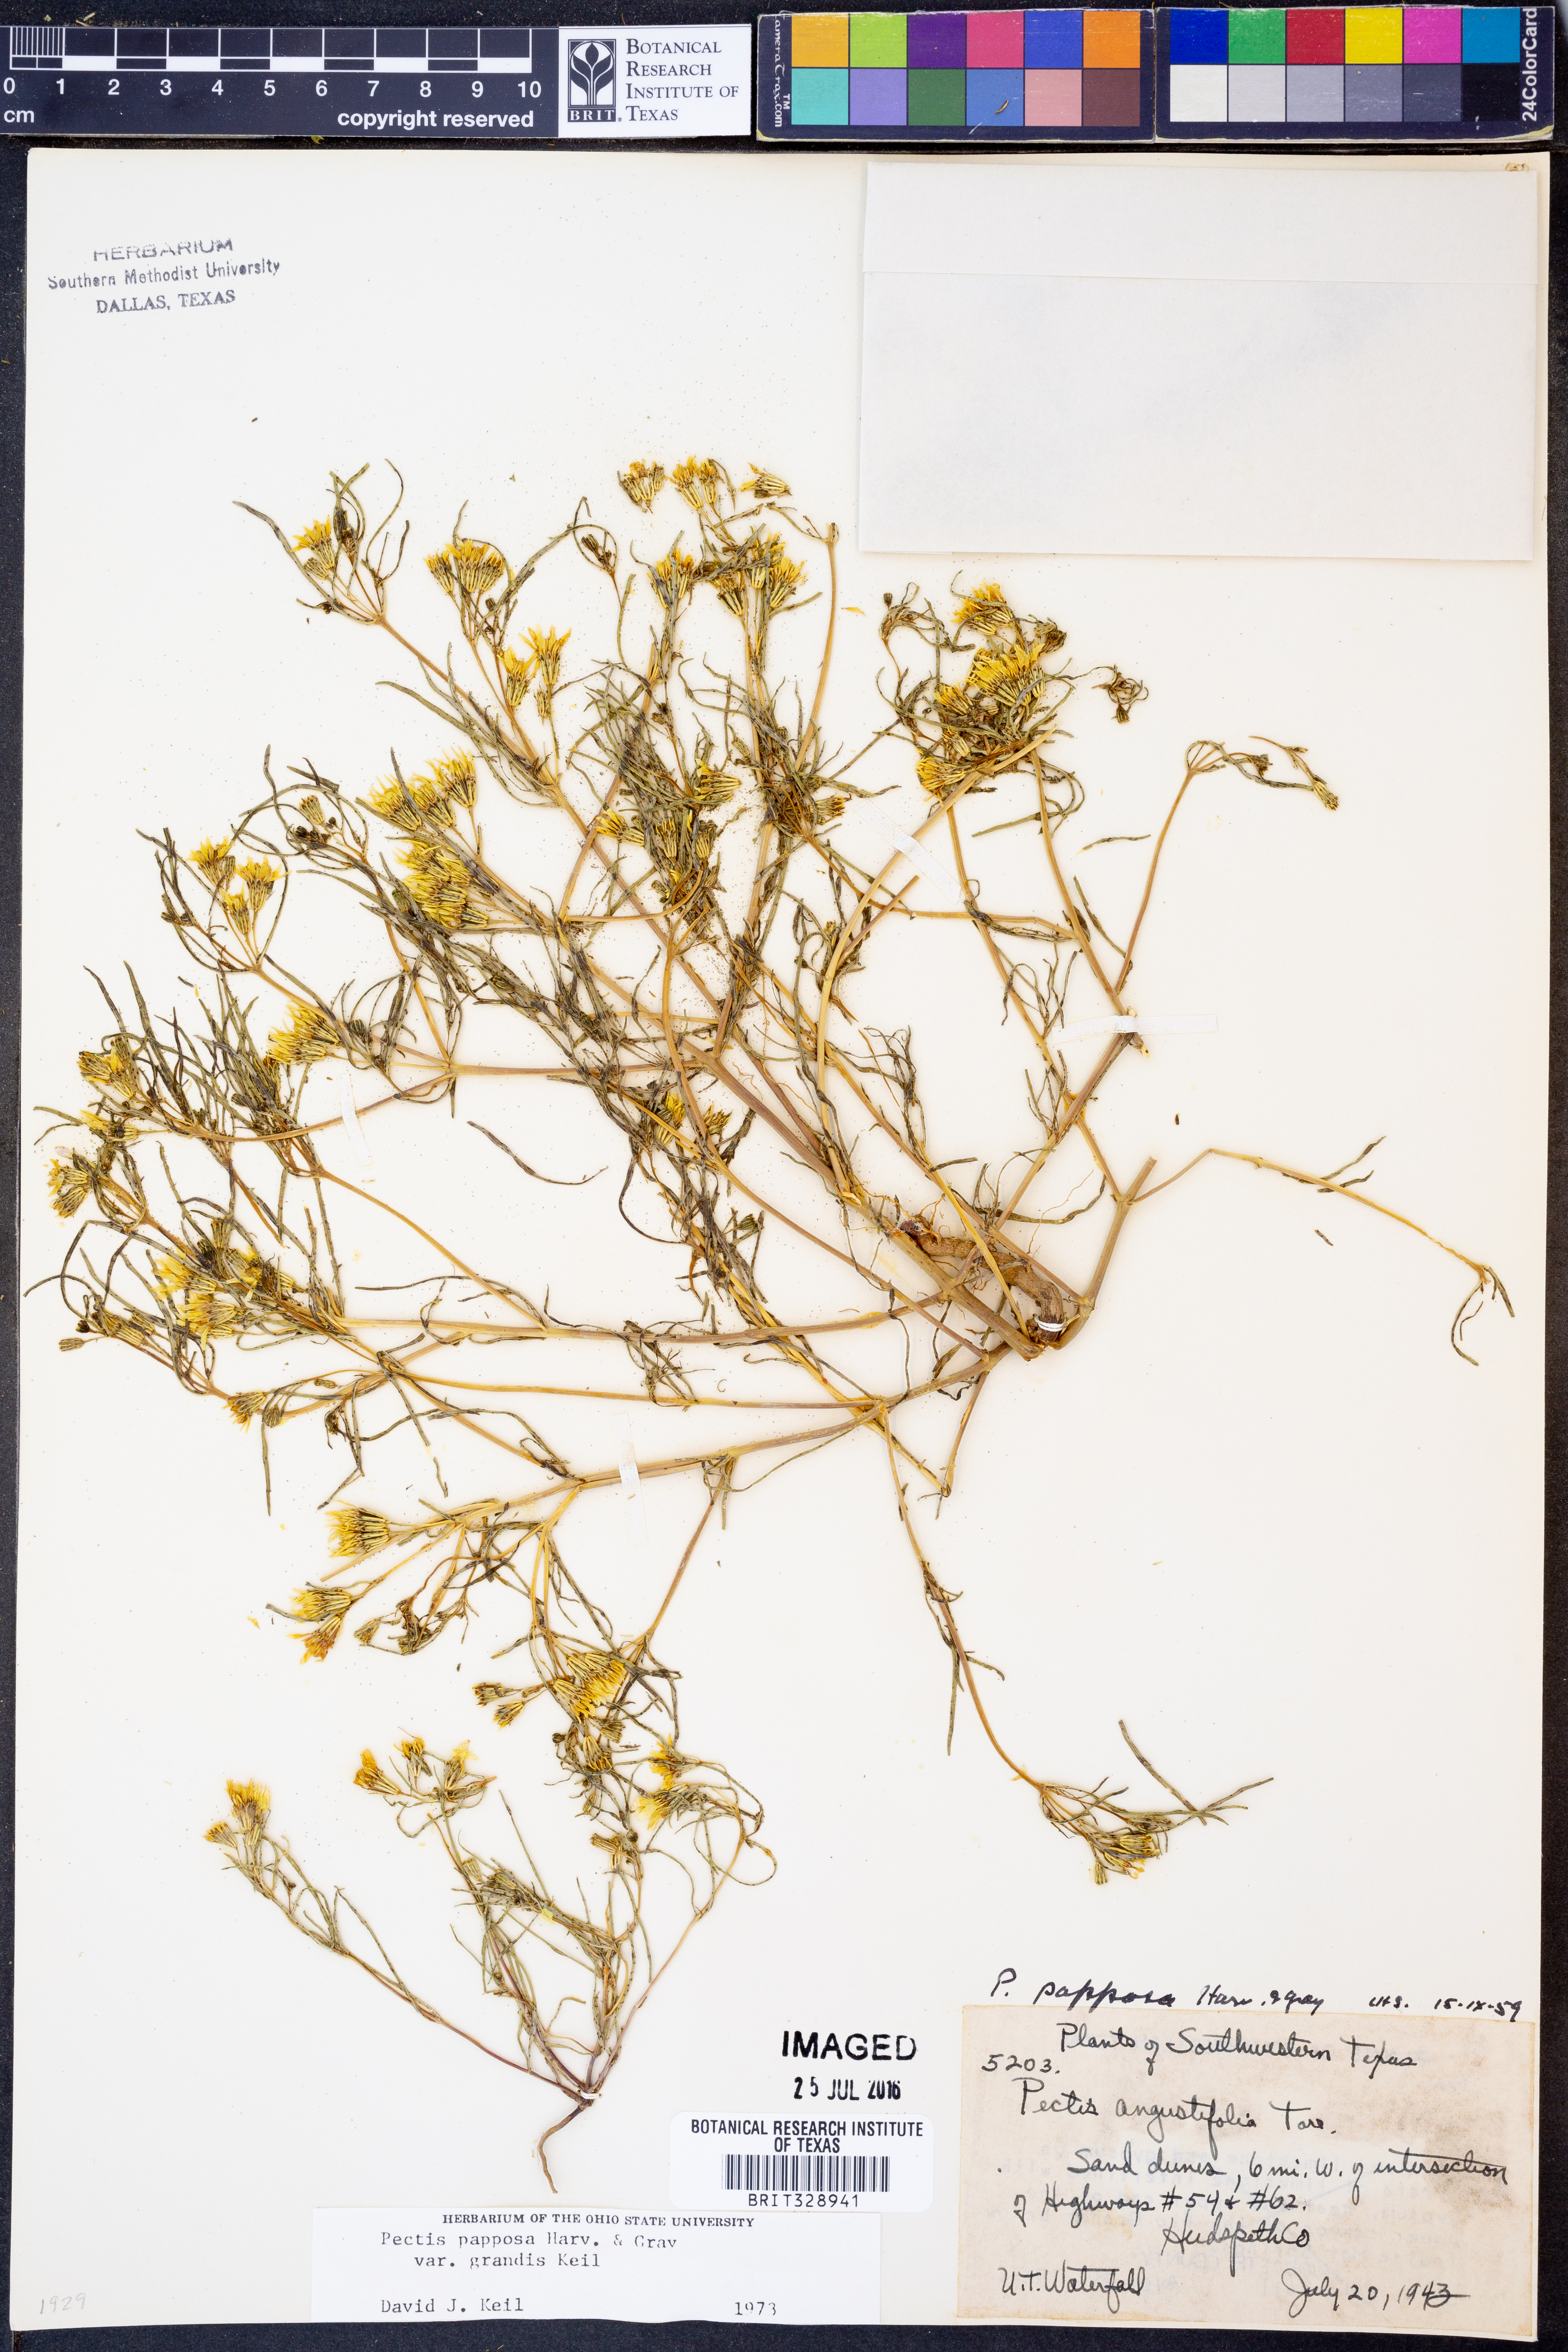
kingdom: Plantae
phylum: Tracheophyta
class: Magnoliopsida
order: Asterales
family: Asteraceae
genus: Pectis
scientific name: Pectis papposa
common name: Many-bristle chinchweed
